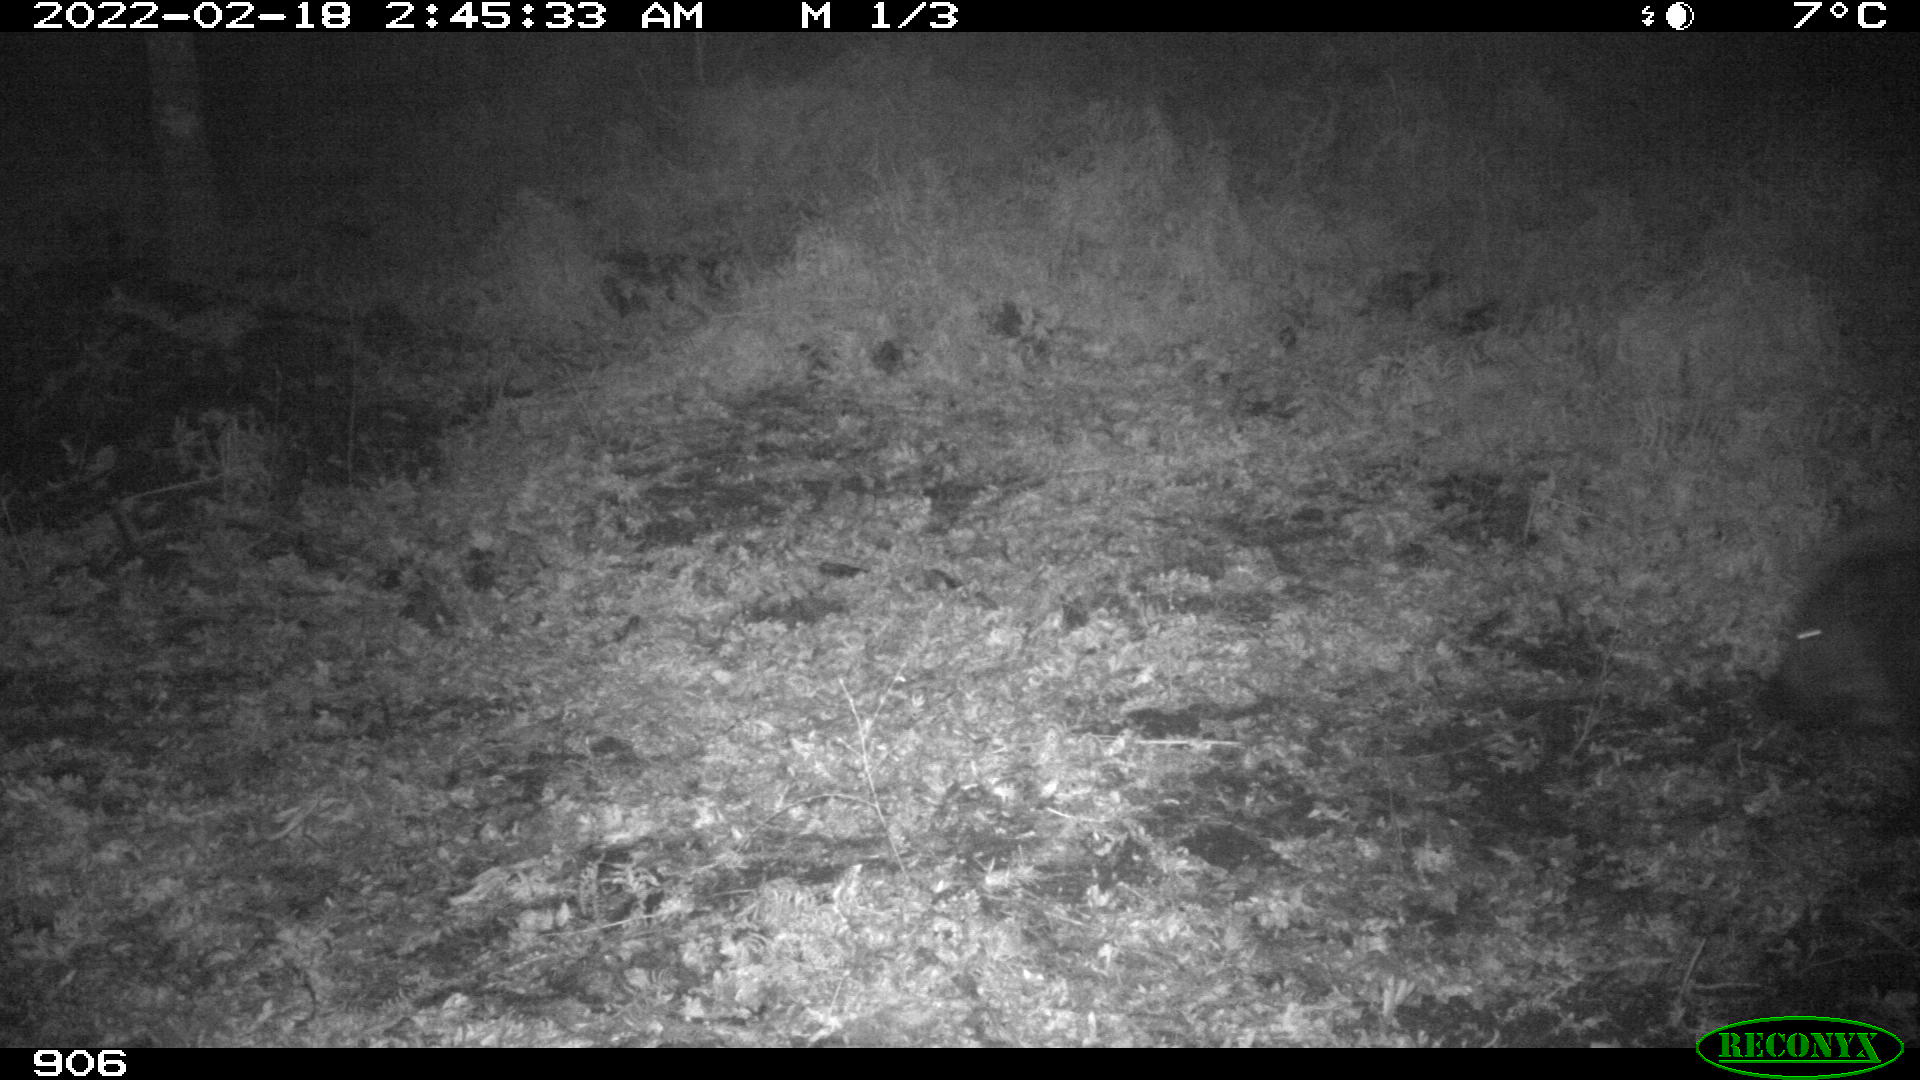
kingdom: Animalia
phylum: Chordata
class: Mammalia
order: Artiodactyla
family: Suidae
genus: Sus
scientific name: Sus scrofa
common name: Wild boar
